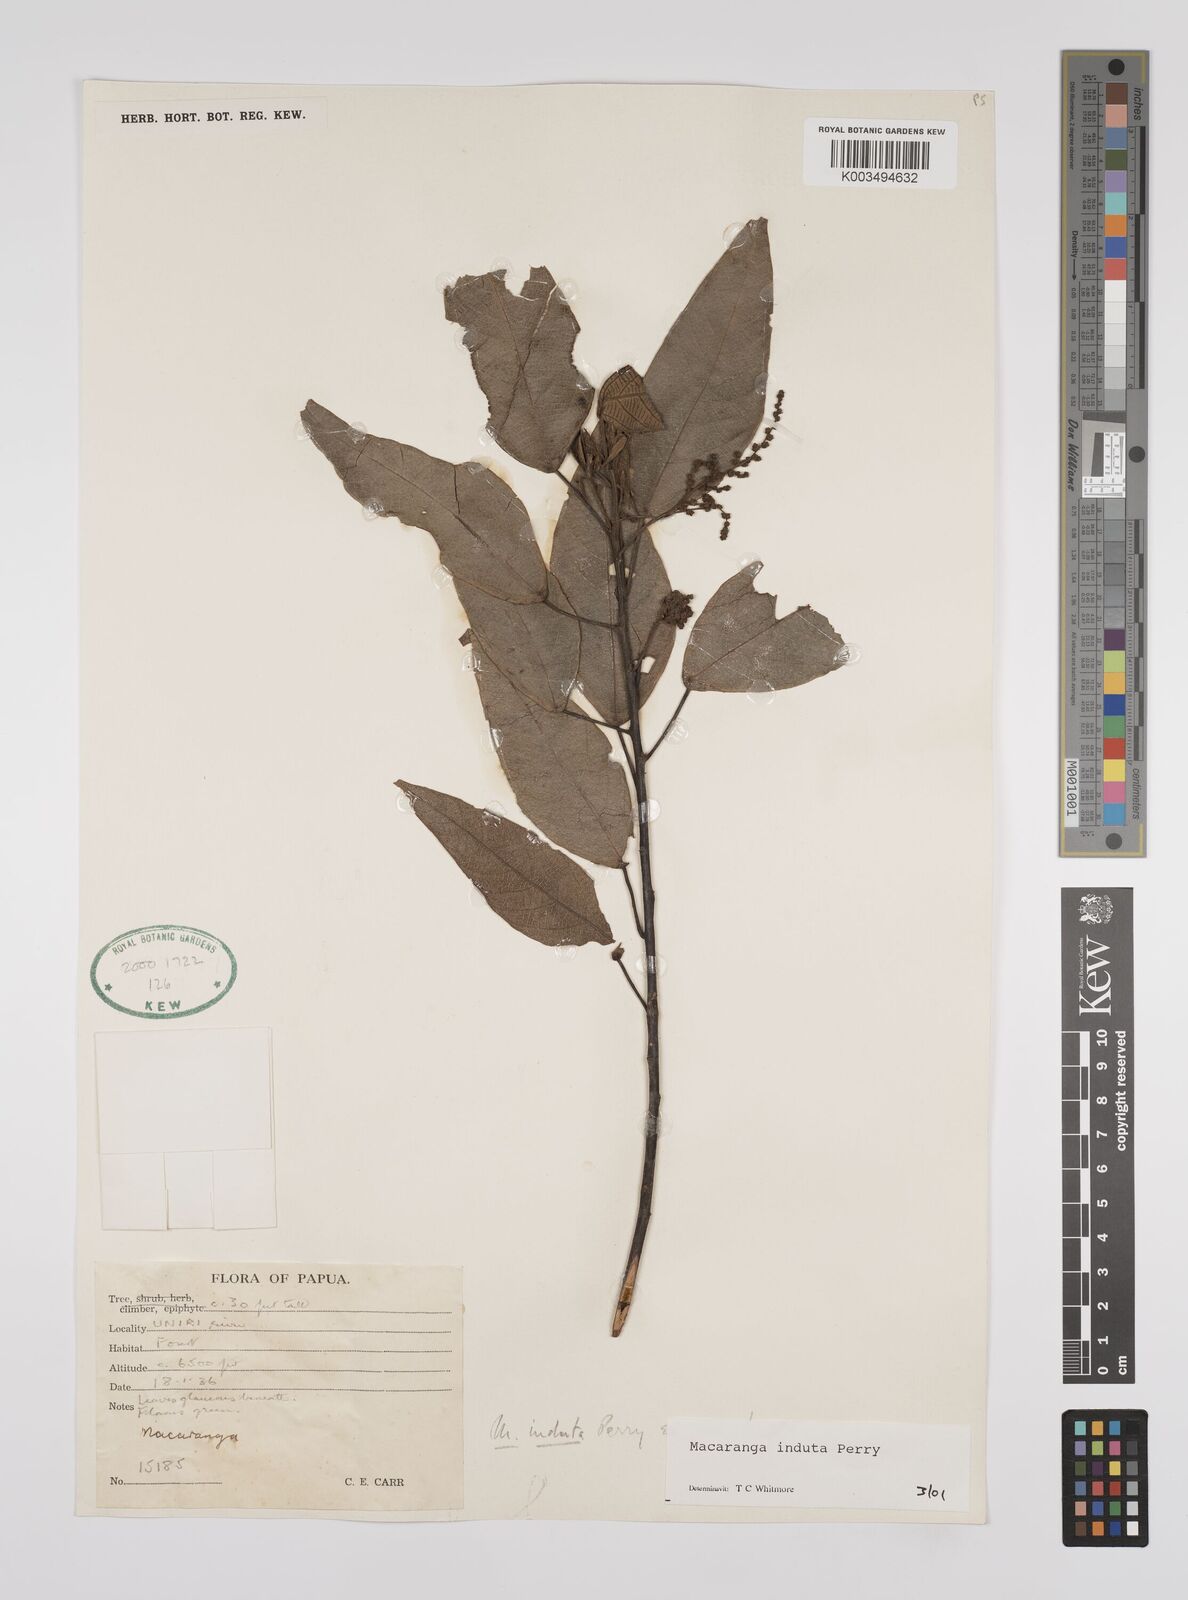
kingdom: Plantae
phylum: Tracheophyta
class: Magnoliopsida
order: Malpighiales
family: Euphorbiaceae
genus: Macaranga
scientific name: Macaranga induta
